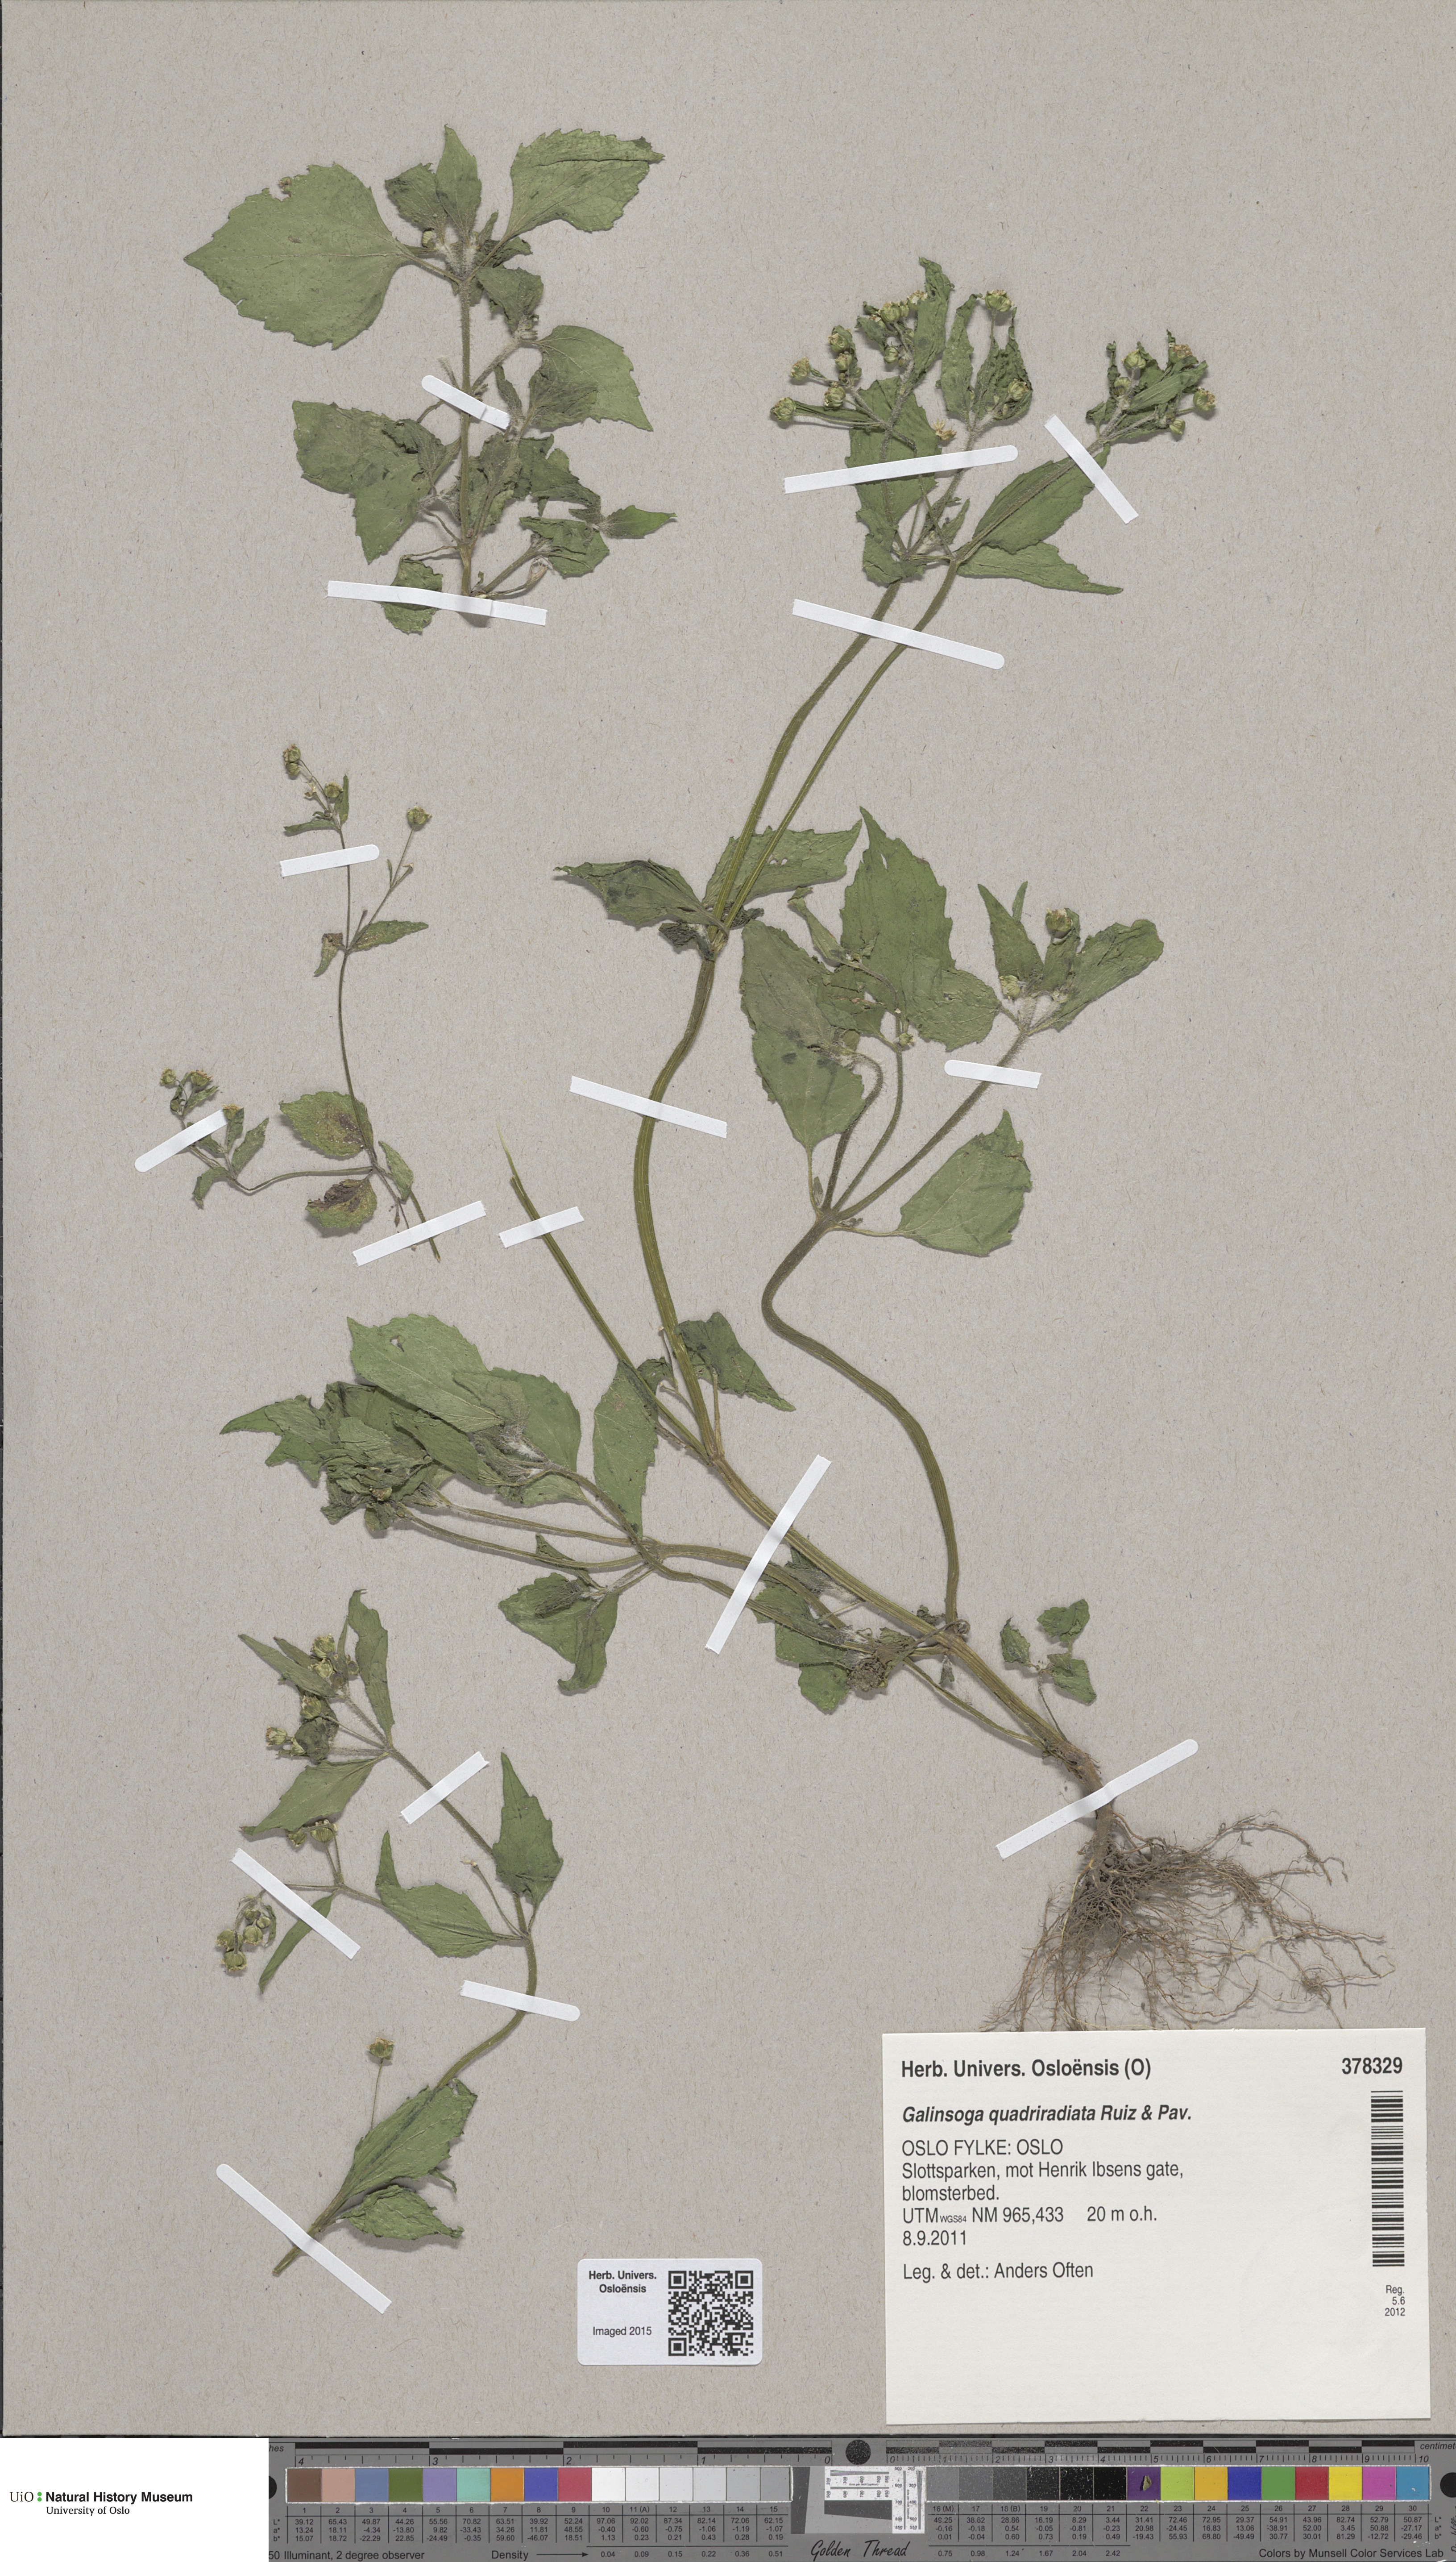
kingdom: Plantae
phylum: Tracheophyta
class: Magnoliopsida
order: Asterales
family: Asteraceae
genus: Galinsoga
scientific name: Galinsoga quadriradiata
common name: Shaggy soldier
